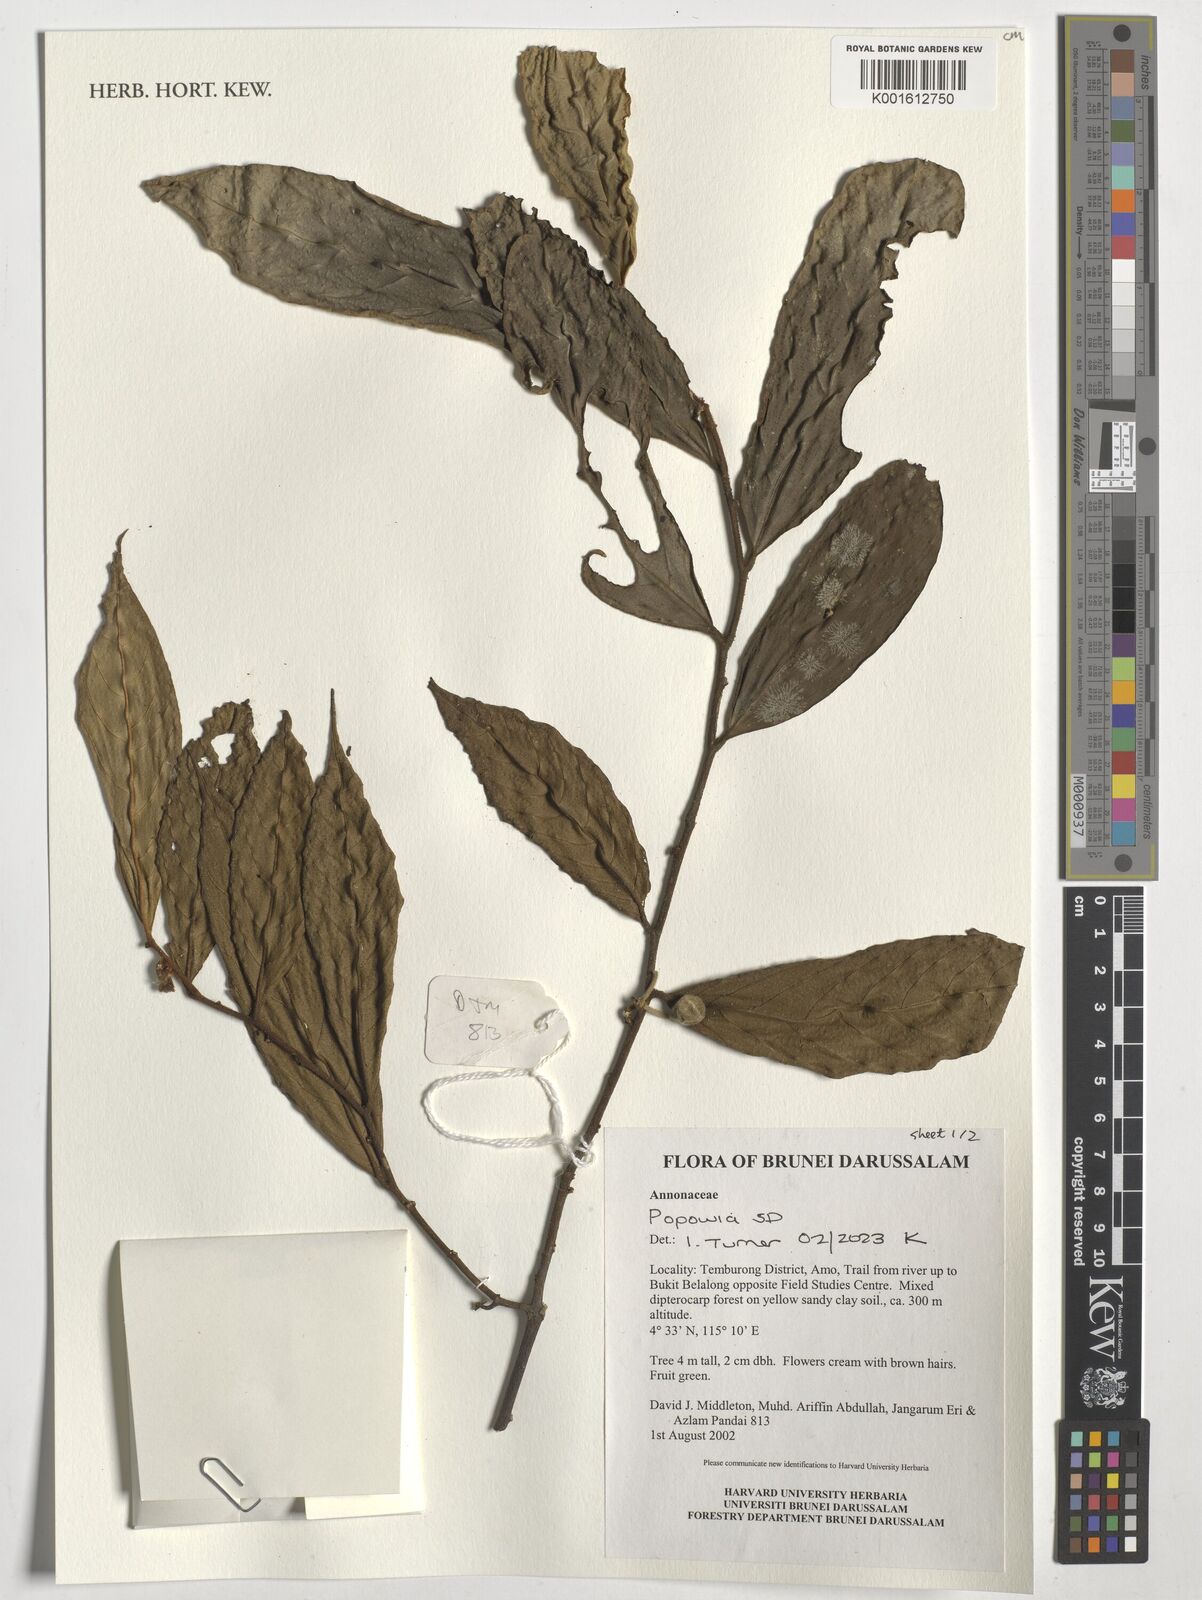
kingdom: Plantae
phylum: Tracheophyta
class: Magnoliopsida
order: Magnoliales
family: Annonaceae
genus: Popowia
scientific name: Popowia
